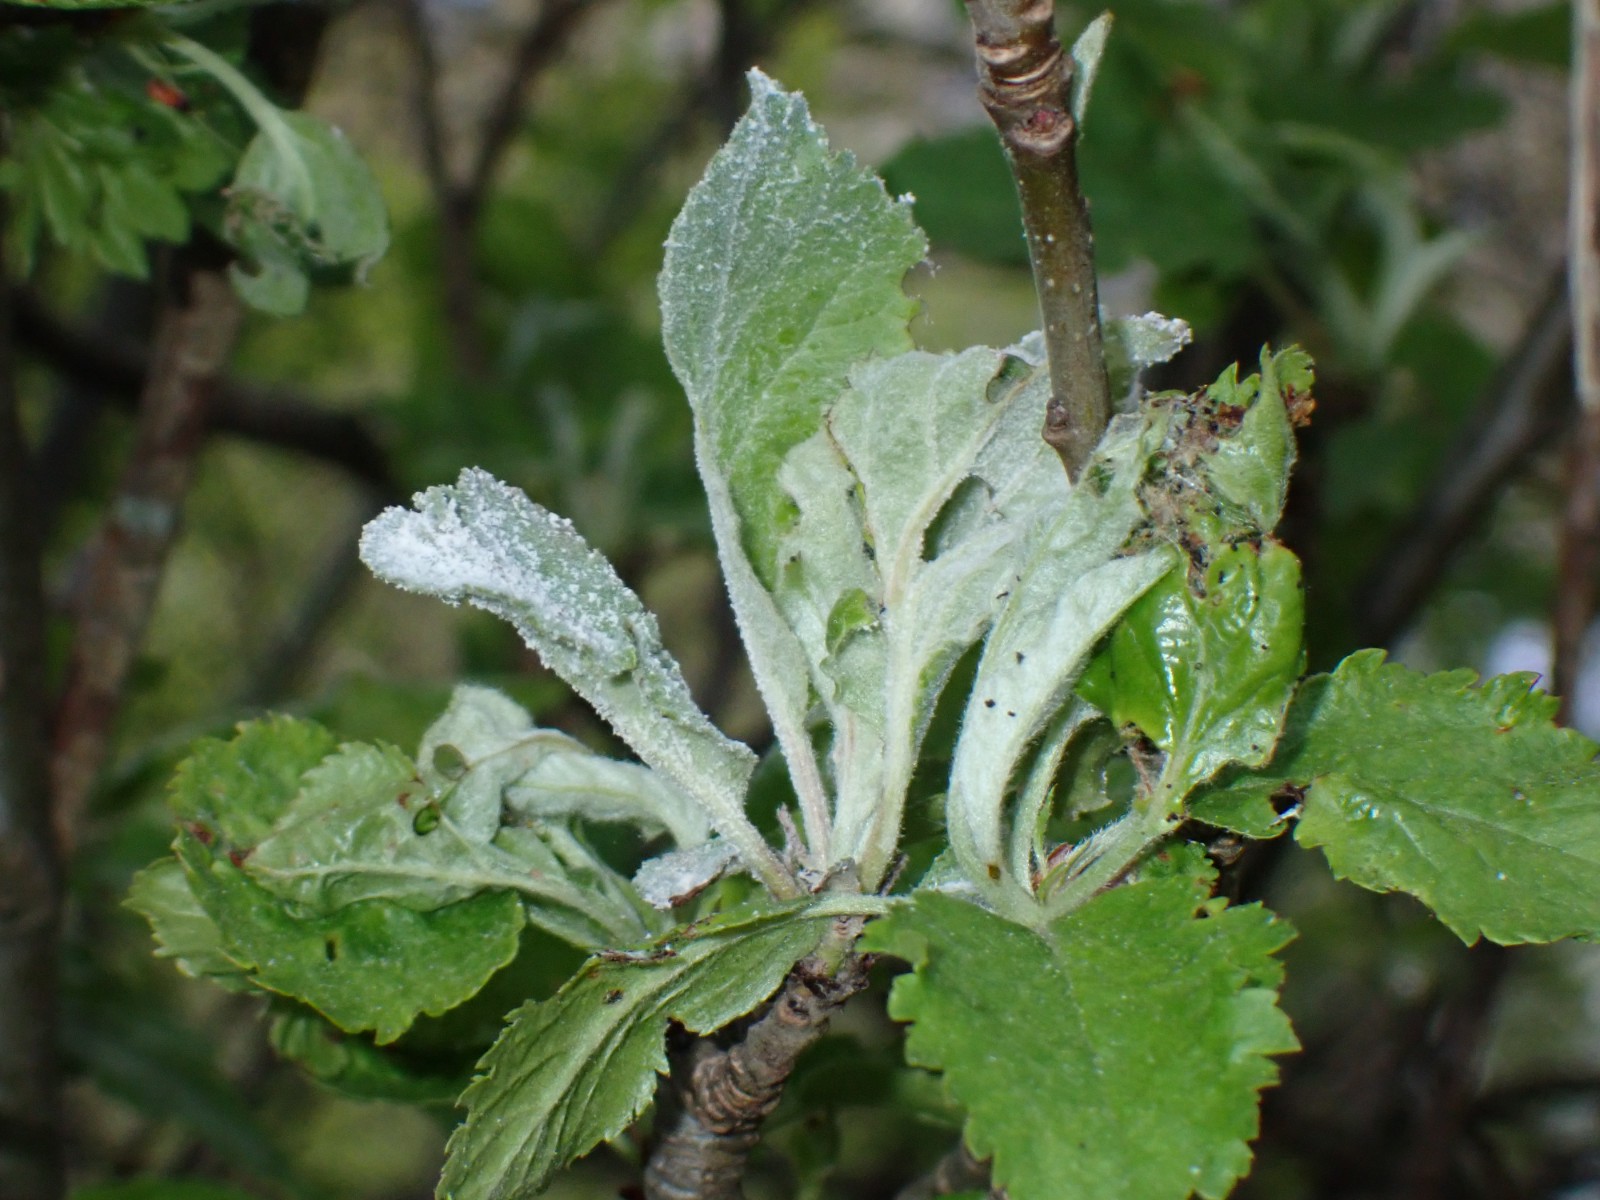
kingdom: Fungi
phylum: Ascomycota
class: Leotiomycetes
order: Helotiales
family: Erysiphaceae
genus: Podosphaera
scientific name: Podosphaera leucotricha
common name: æble-meldug
